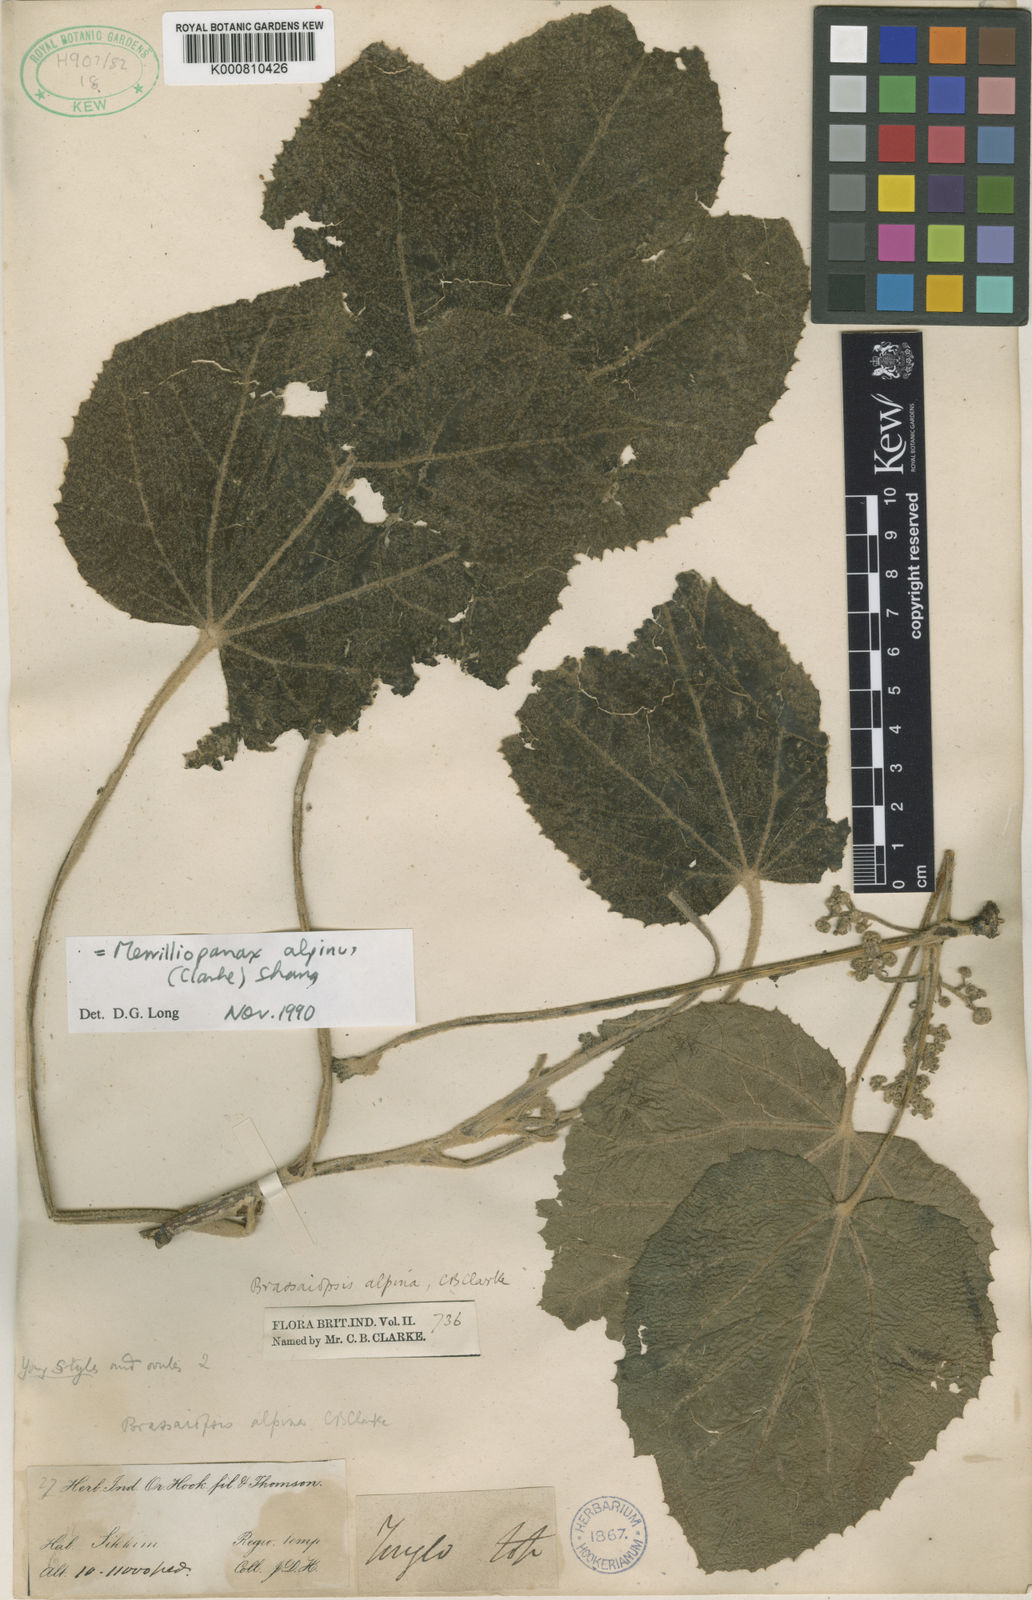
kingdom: Plantae
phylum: Tracheophyta
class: Magnoliopsida
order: Apiales
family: Araliaceae
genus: Merrilliopanax
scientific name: Merrilliopanax alpinus
